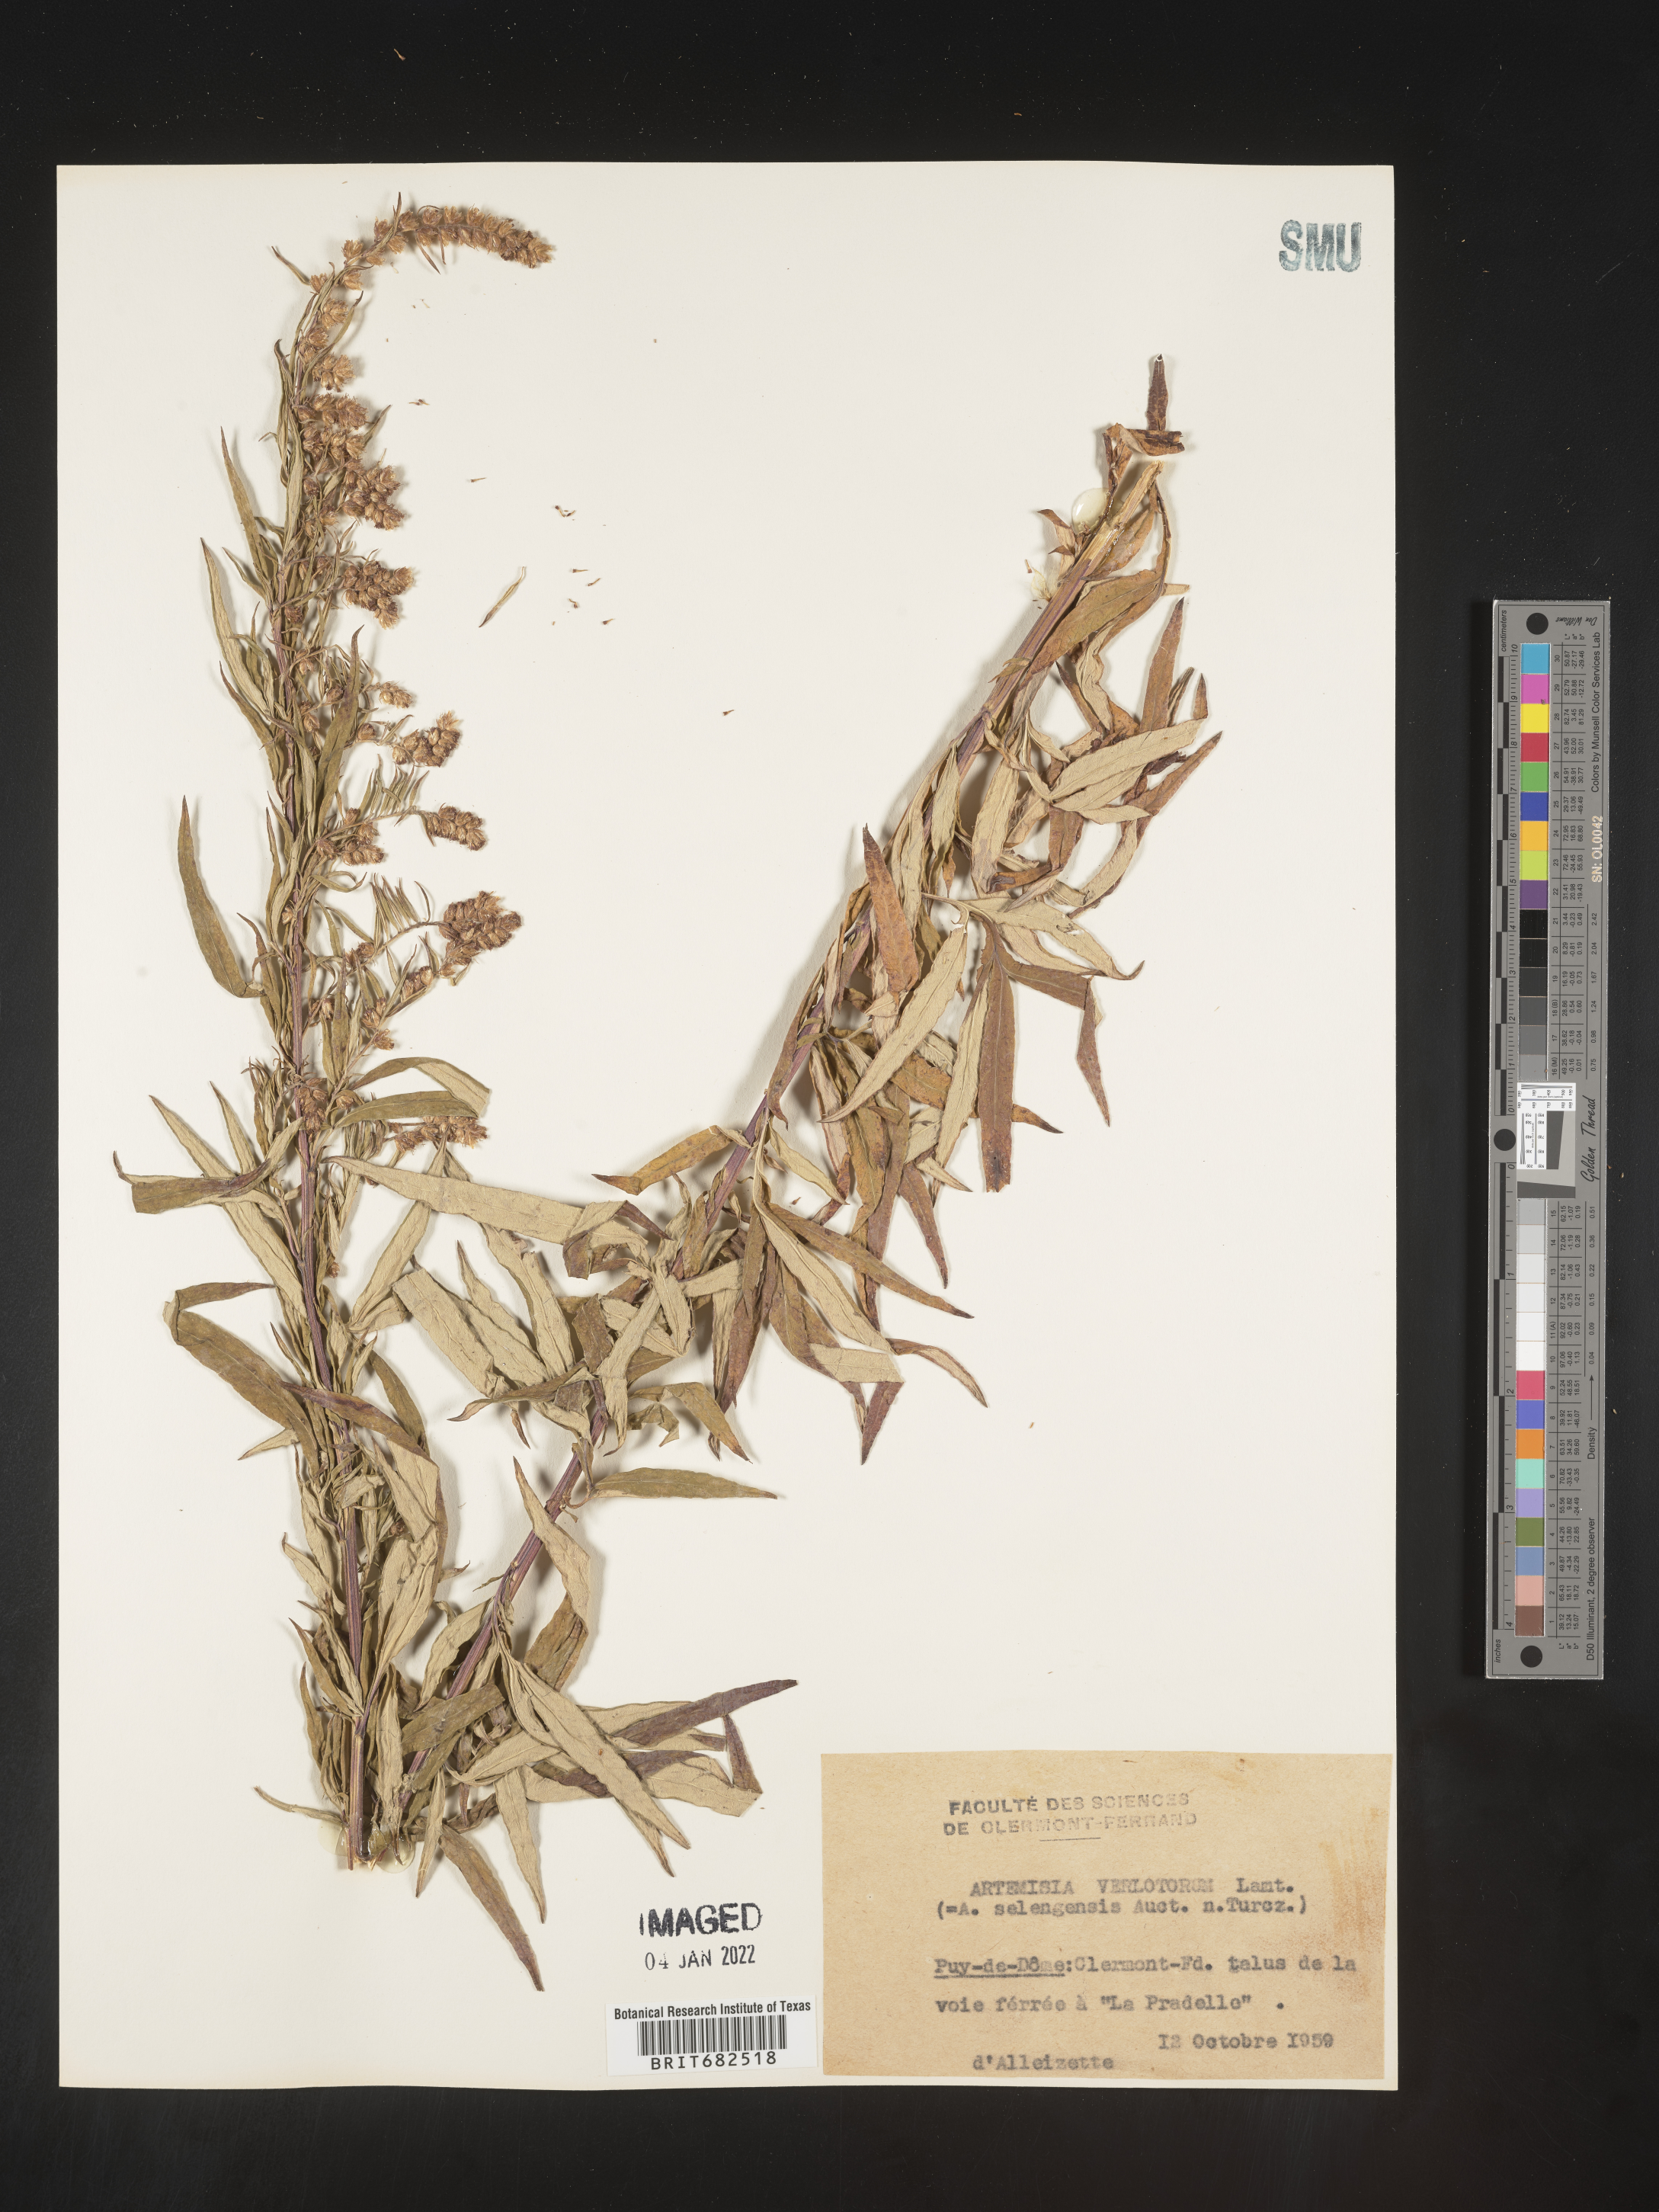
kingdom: Plantae
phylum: Tracheophyta
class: Magnoliopsida
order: Asterales
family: Asteraceae
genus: Artemisia
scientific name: Artemisia
